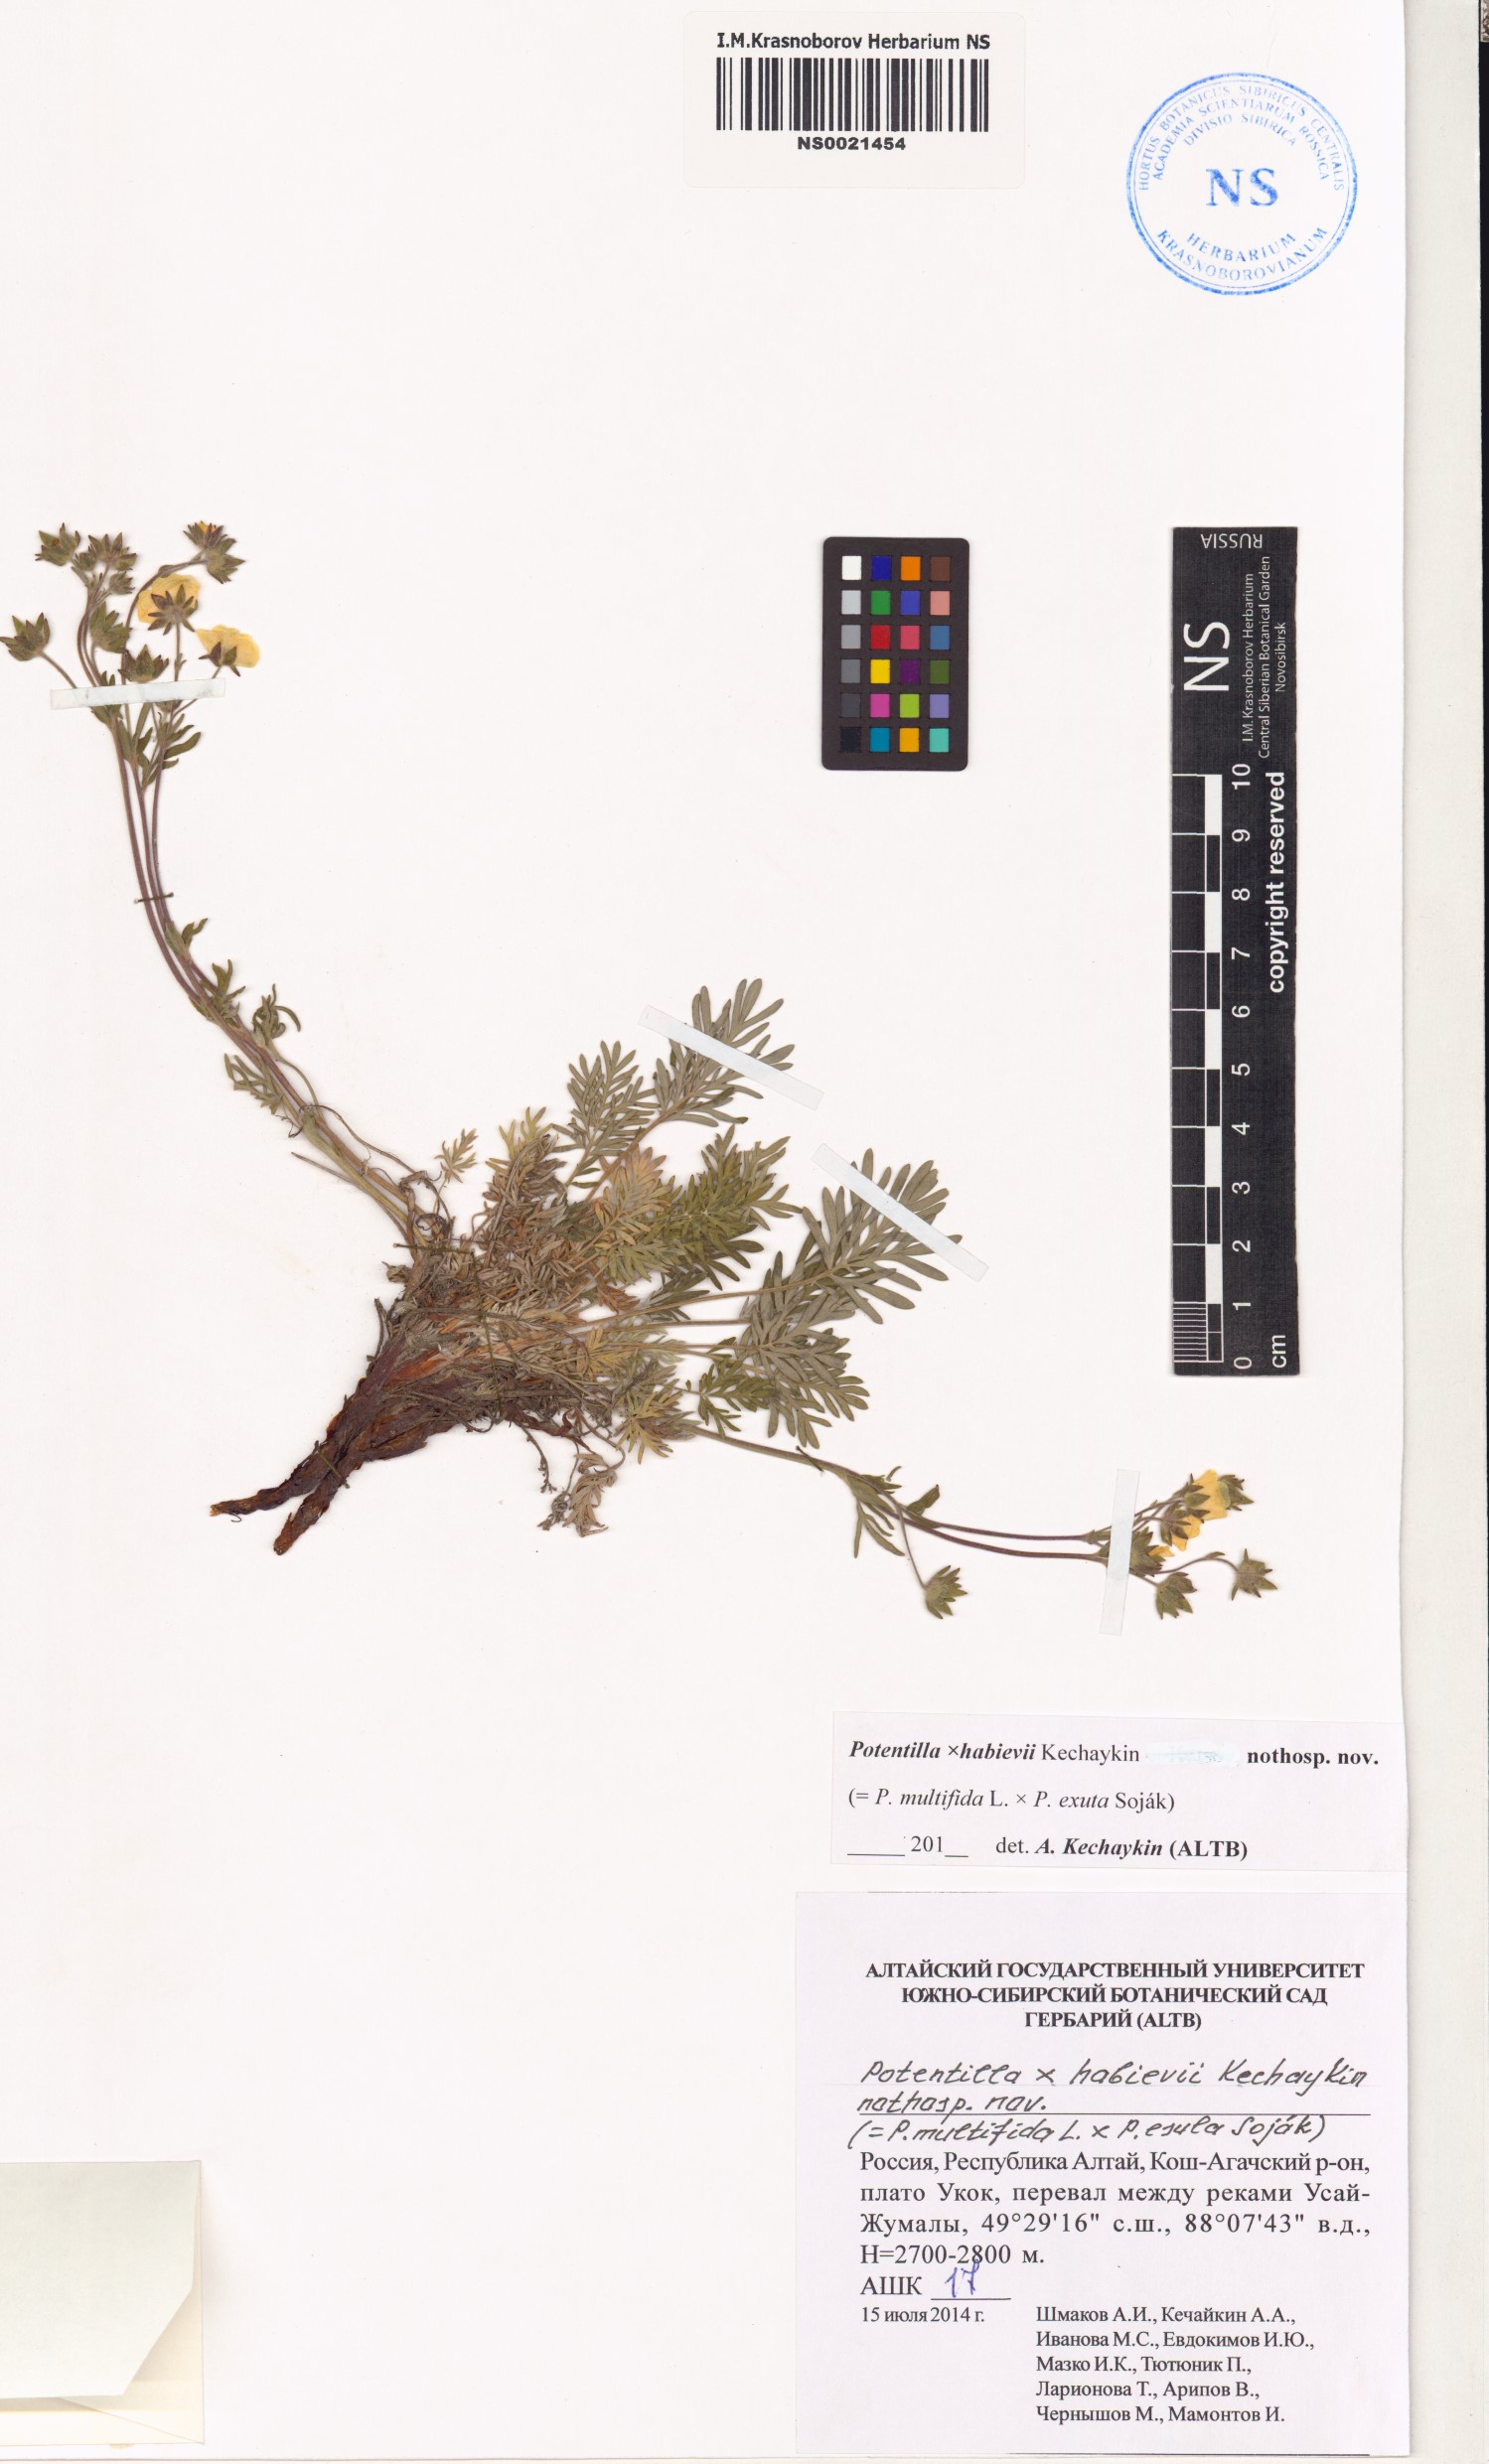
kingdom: Plantae
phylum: Tracheophyta
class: Magnoliopsida
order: Rosales
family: Rosaceae
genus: Potentilla
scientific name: Potentilla habievii
